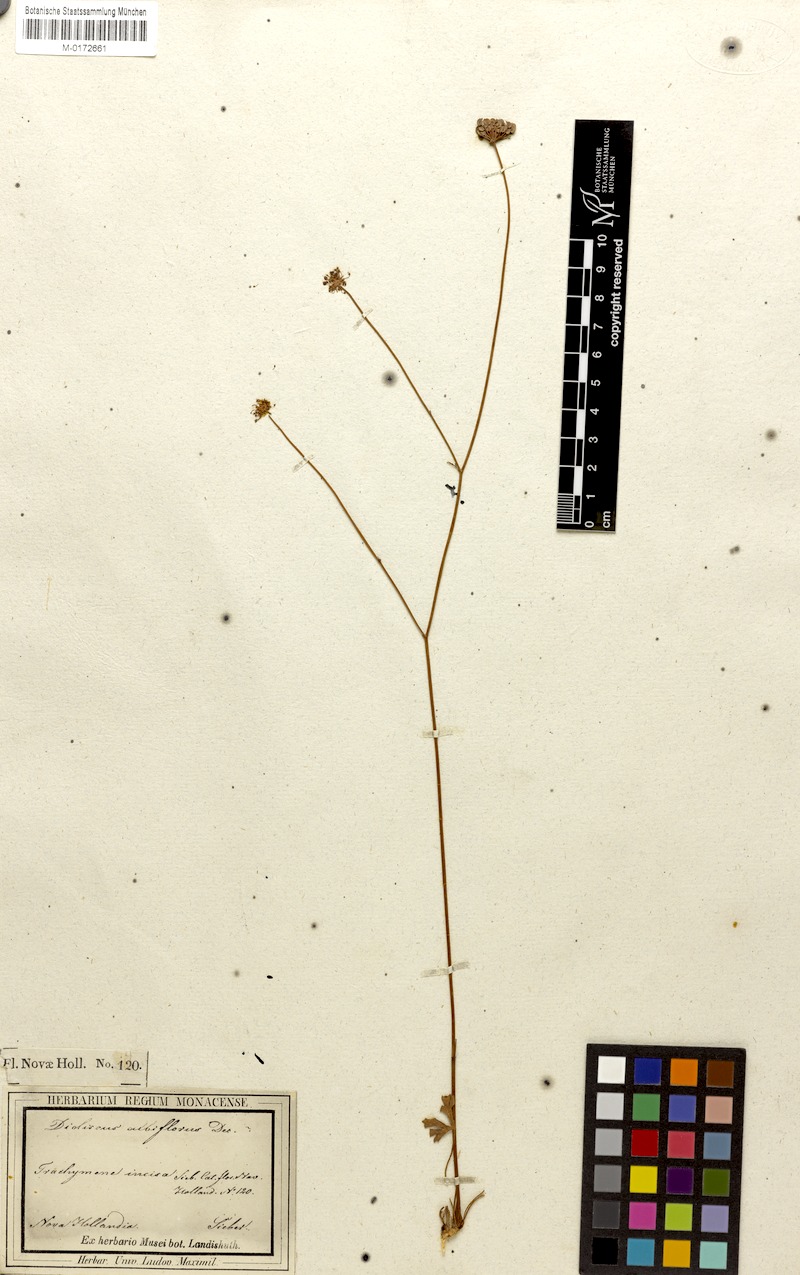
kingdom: Plantae
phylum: Tracheophyta
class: Magnoliopsida
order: Apiales
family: Araliaceae
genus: Trachymene
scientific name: Trachymene incisa
